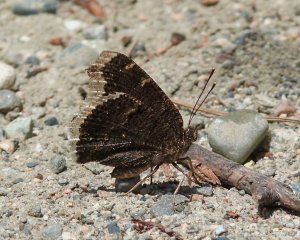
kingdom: Animalia
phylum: Arthropoda
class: Insecta
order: Lepidoptera
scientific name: Lepidoptera
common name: Butterflies
